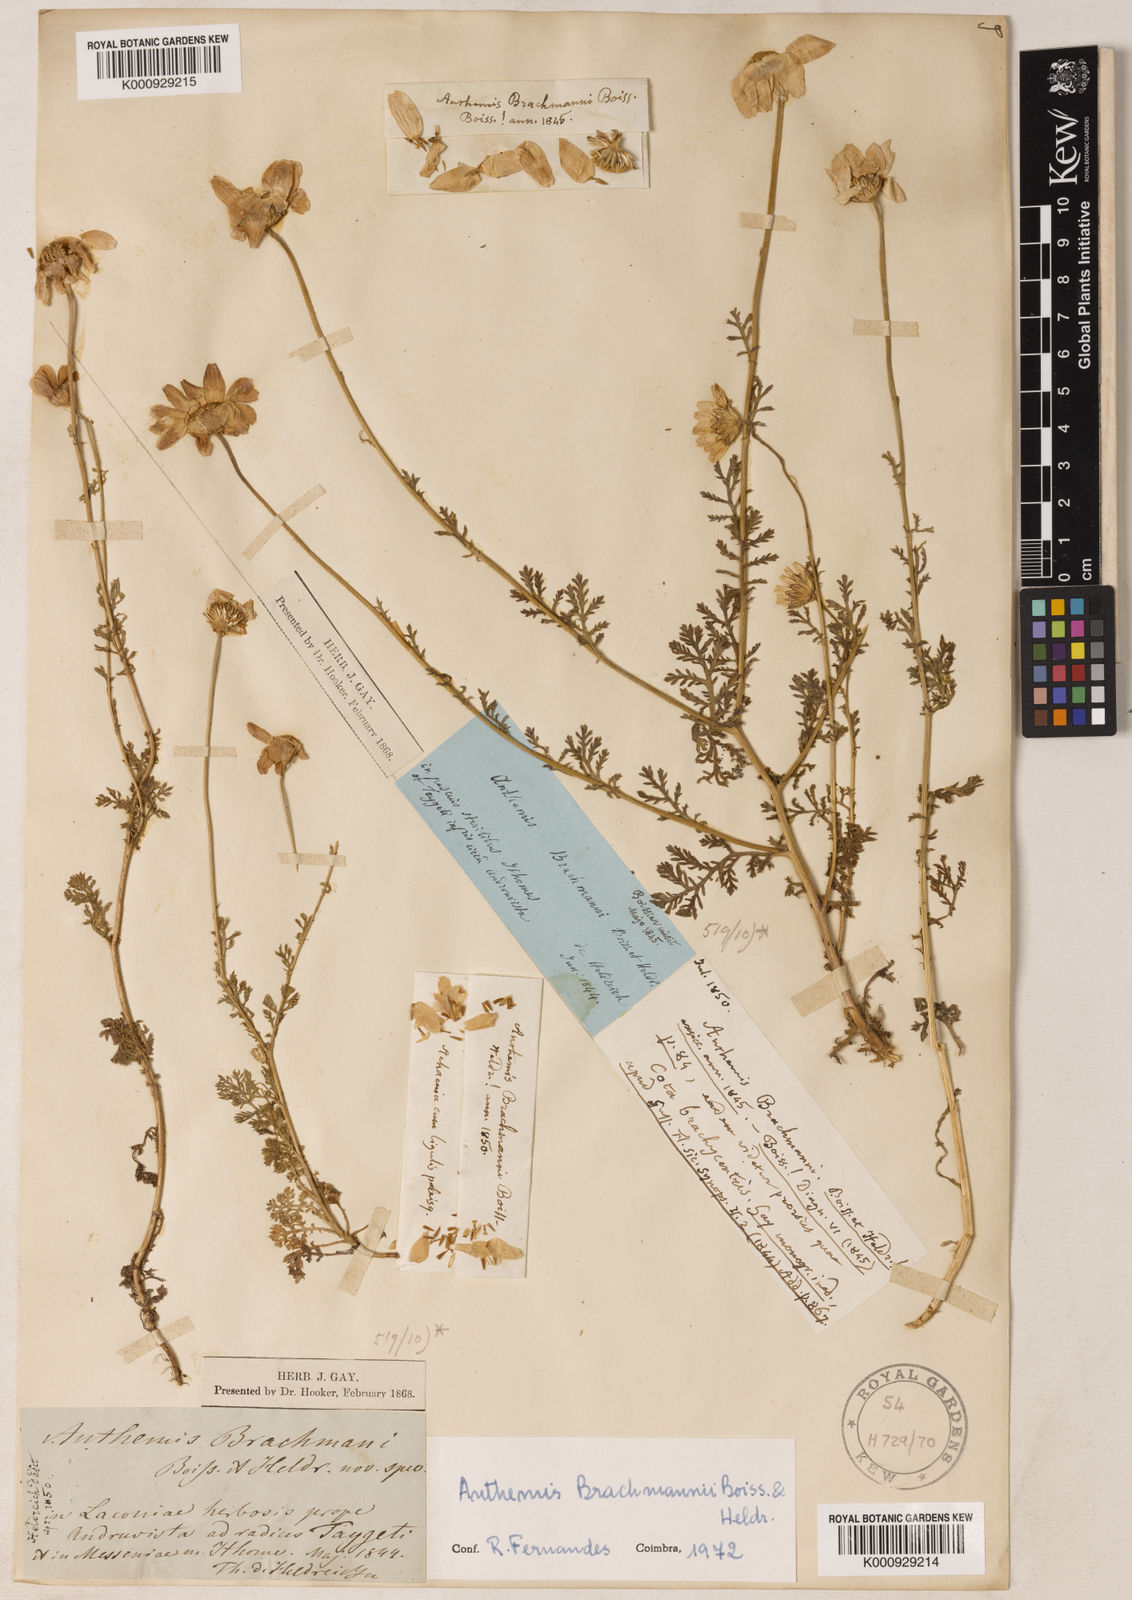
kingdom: Plantae
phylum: Tracheophyta
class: Magnoliopsida
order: Asterales
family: Asteraceae
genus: Cota
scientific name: Cota brachmanni
